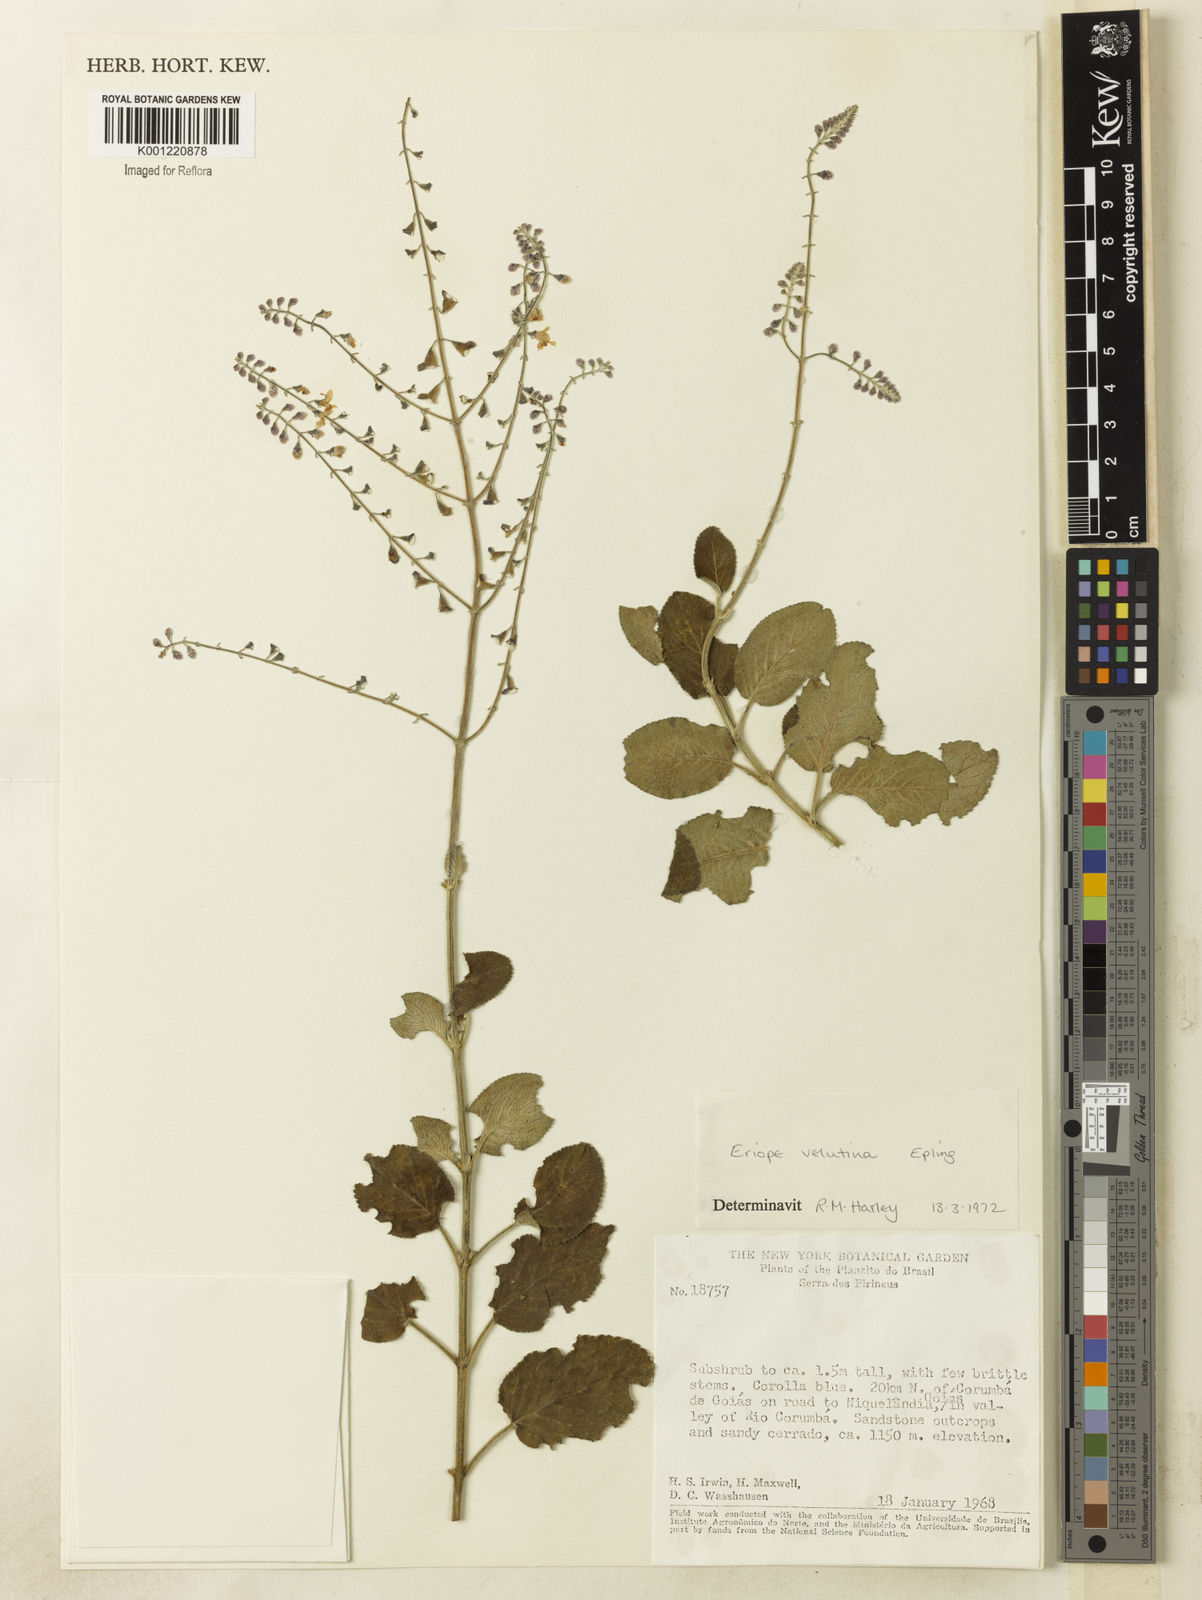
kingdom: Plantae
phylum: Tracheophyta
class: Magnoliopsida
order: Lamiales
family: Lamiaceae
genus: Eriope
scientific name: Eriope velutina
